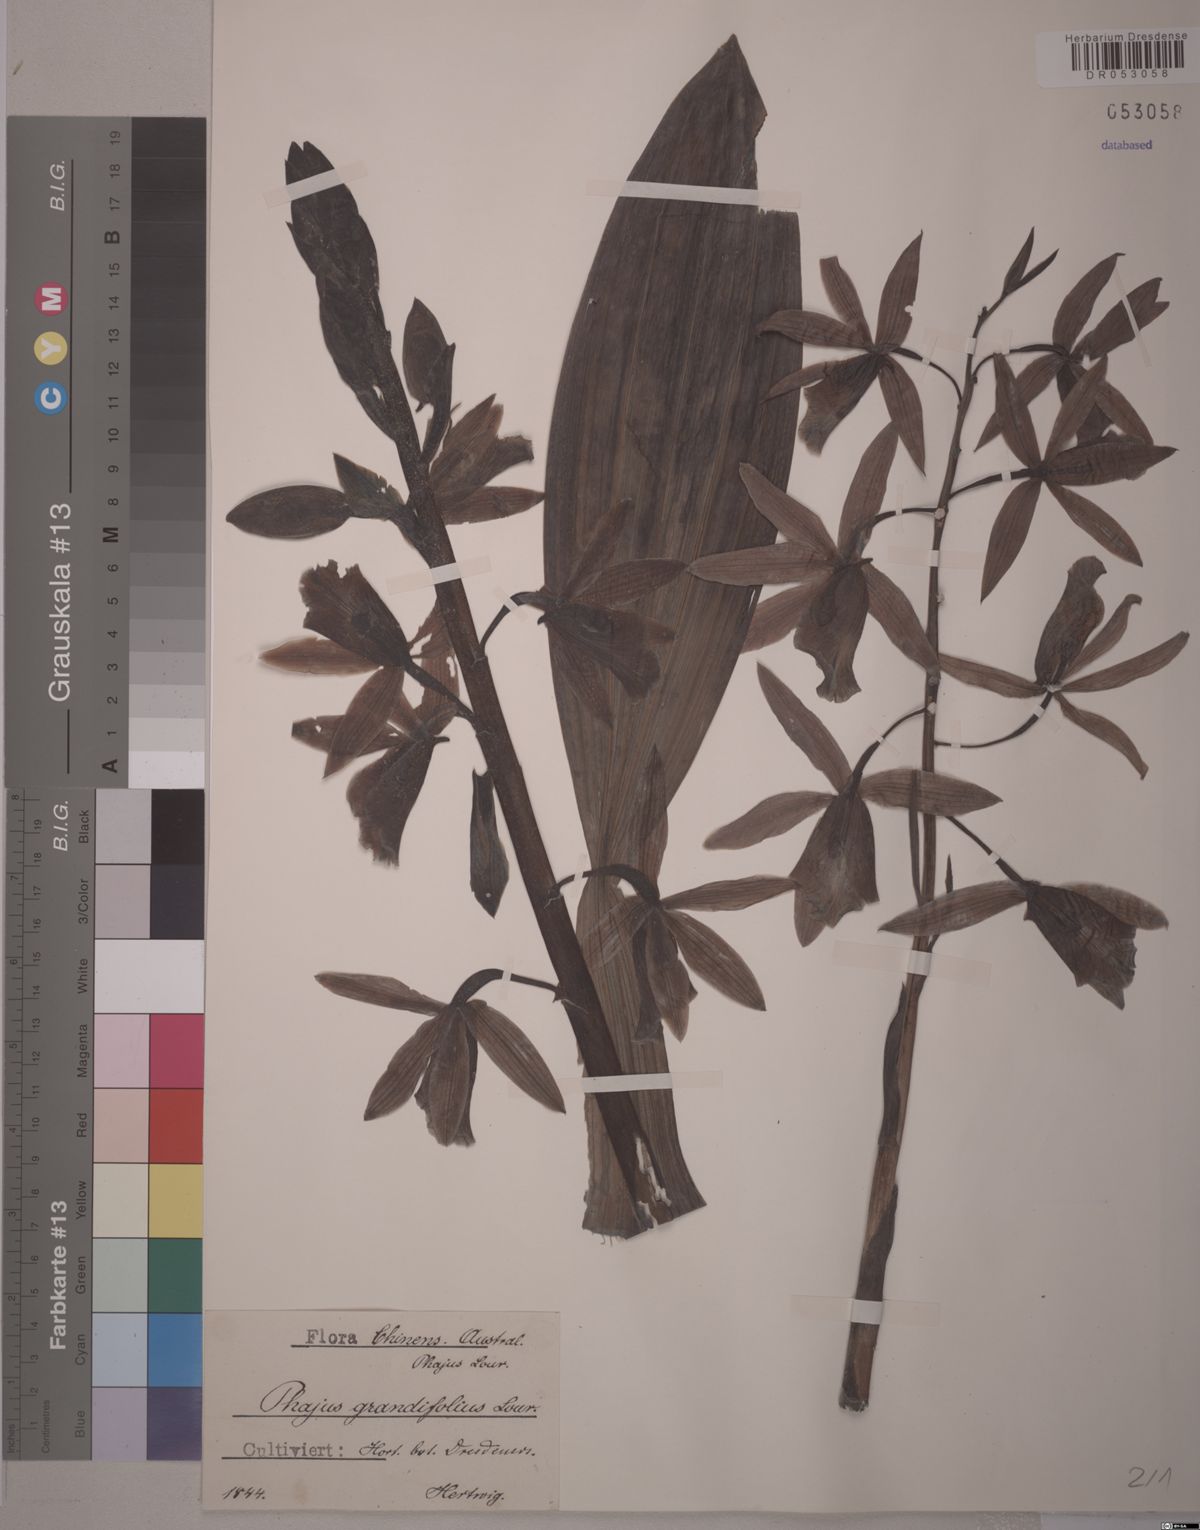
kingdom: Plantae
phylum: Tracheophyta
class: Liliopsida
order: Asparagales
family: Orchidaceae
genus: Calanthe
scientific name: Calanthe tankervilleae
